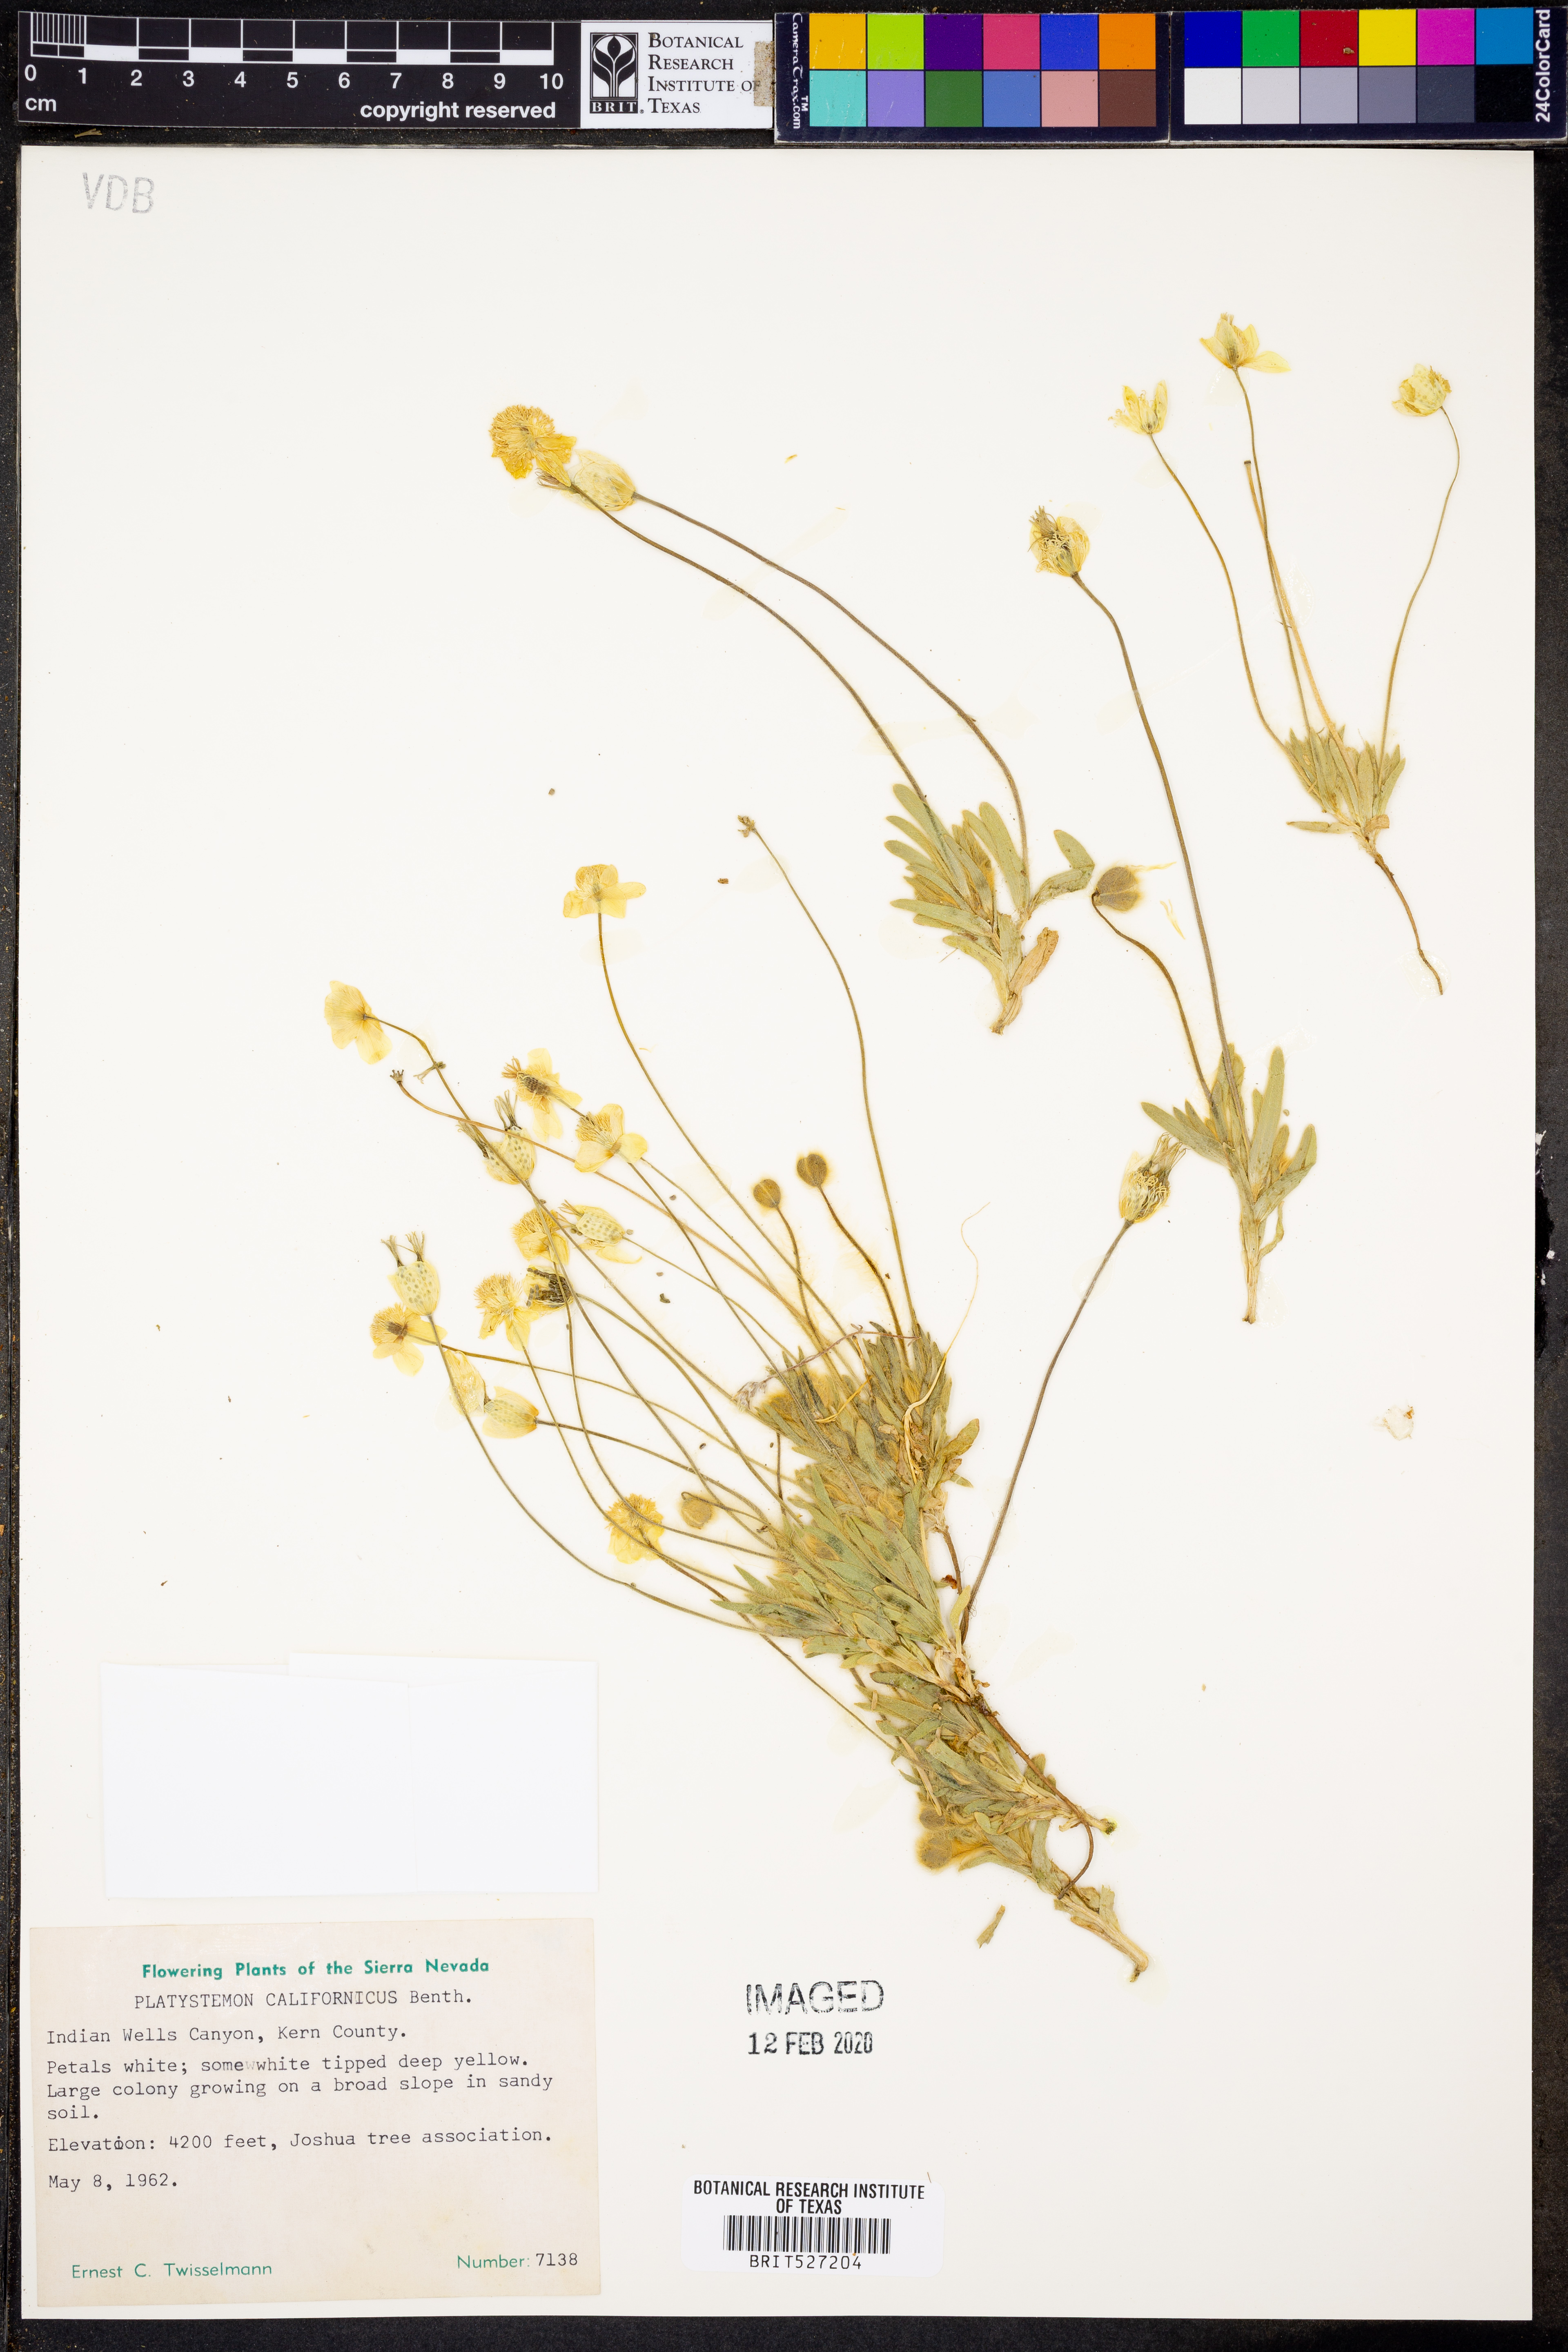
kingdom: Plantae
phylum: Tracheophyta
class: Magnoliopsida
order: Ranunculales
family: Papaveraceae
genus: Platystemon
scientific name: Platystemon californicus
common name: Cream-cups
